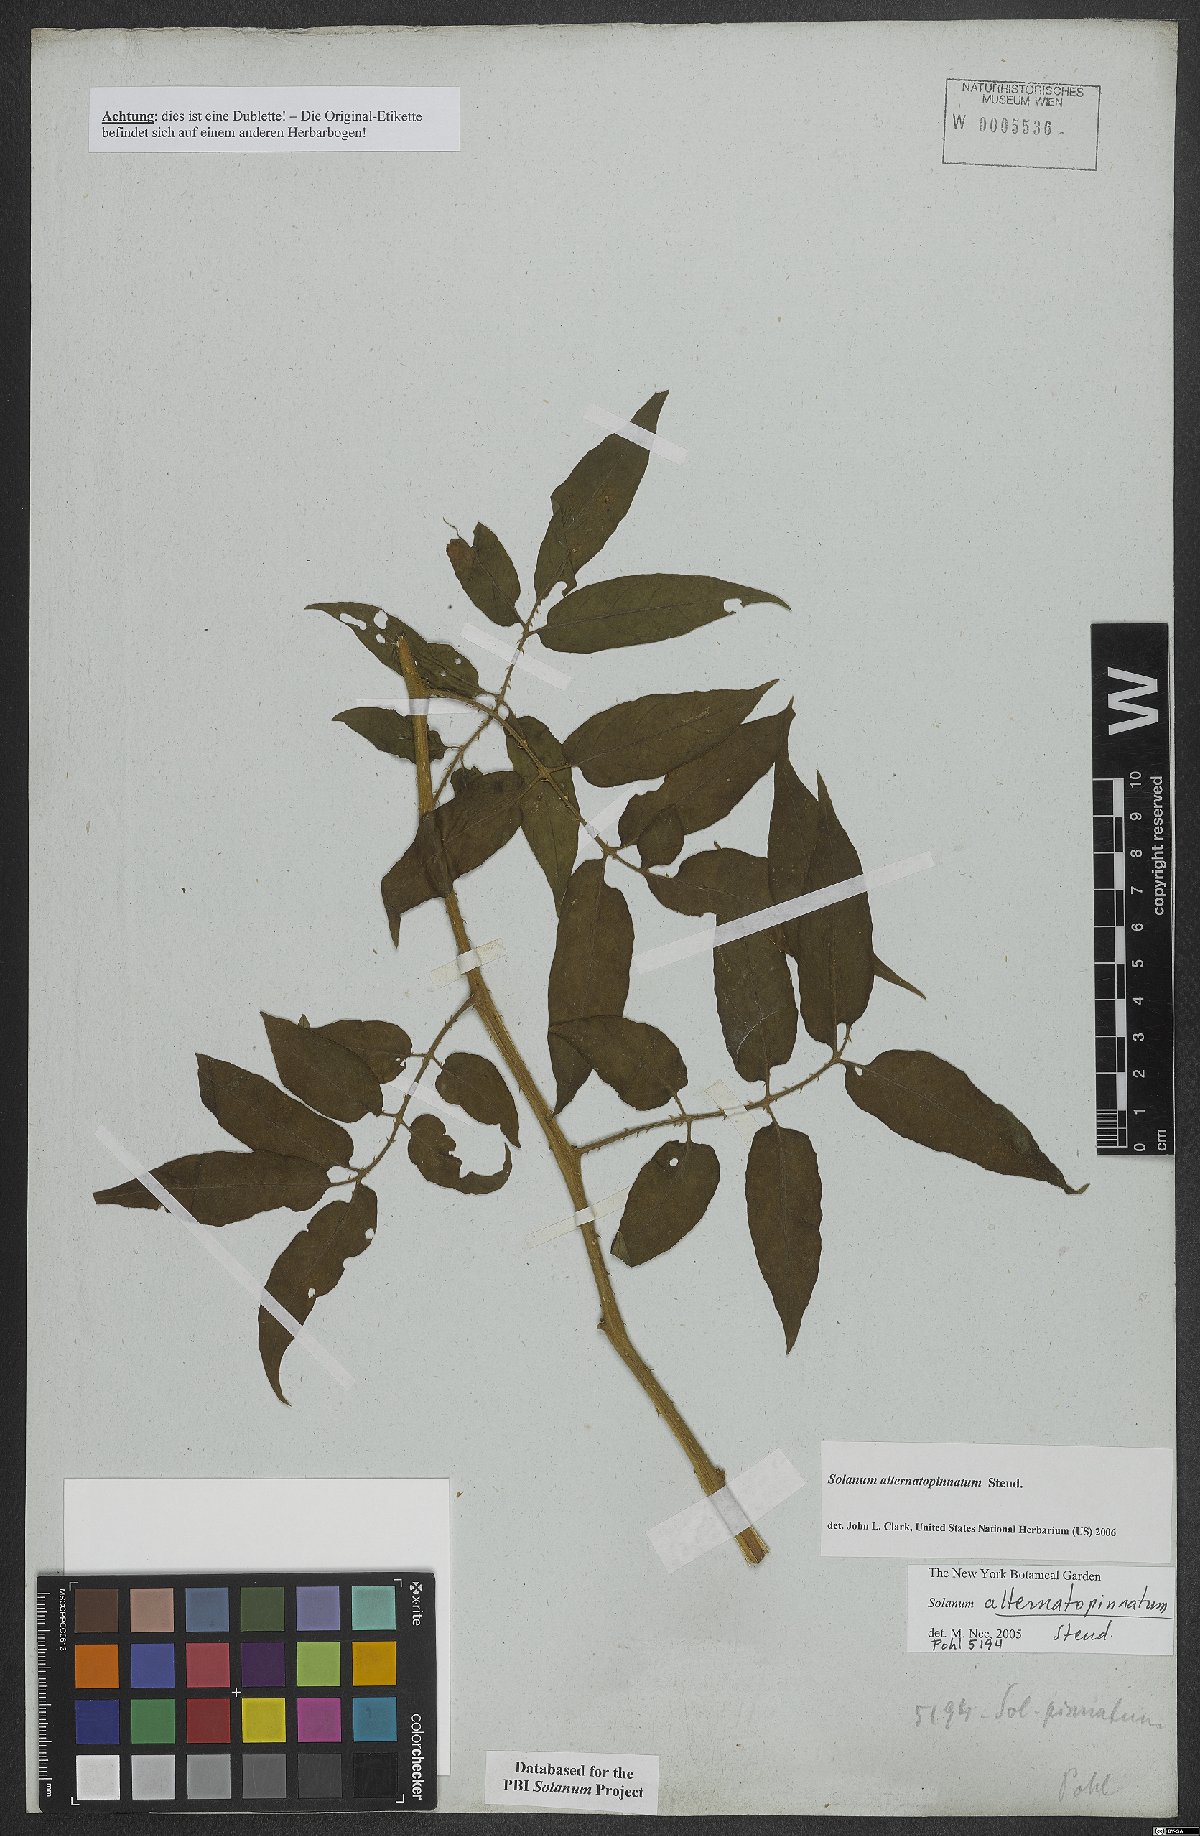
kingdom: Plantae
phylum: Tracheophyta
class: Magnoliopsida
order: Solanales
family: Solanaceae
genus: Solanum
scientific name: Solanum alternatopinnatum
